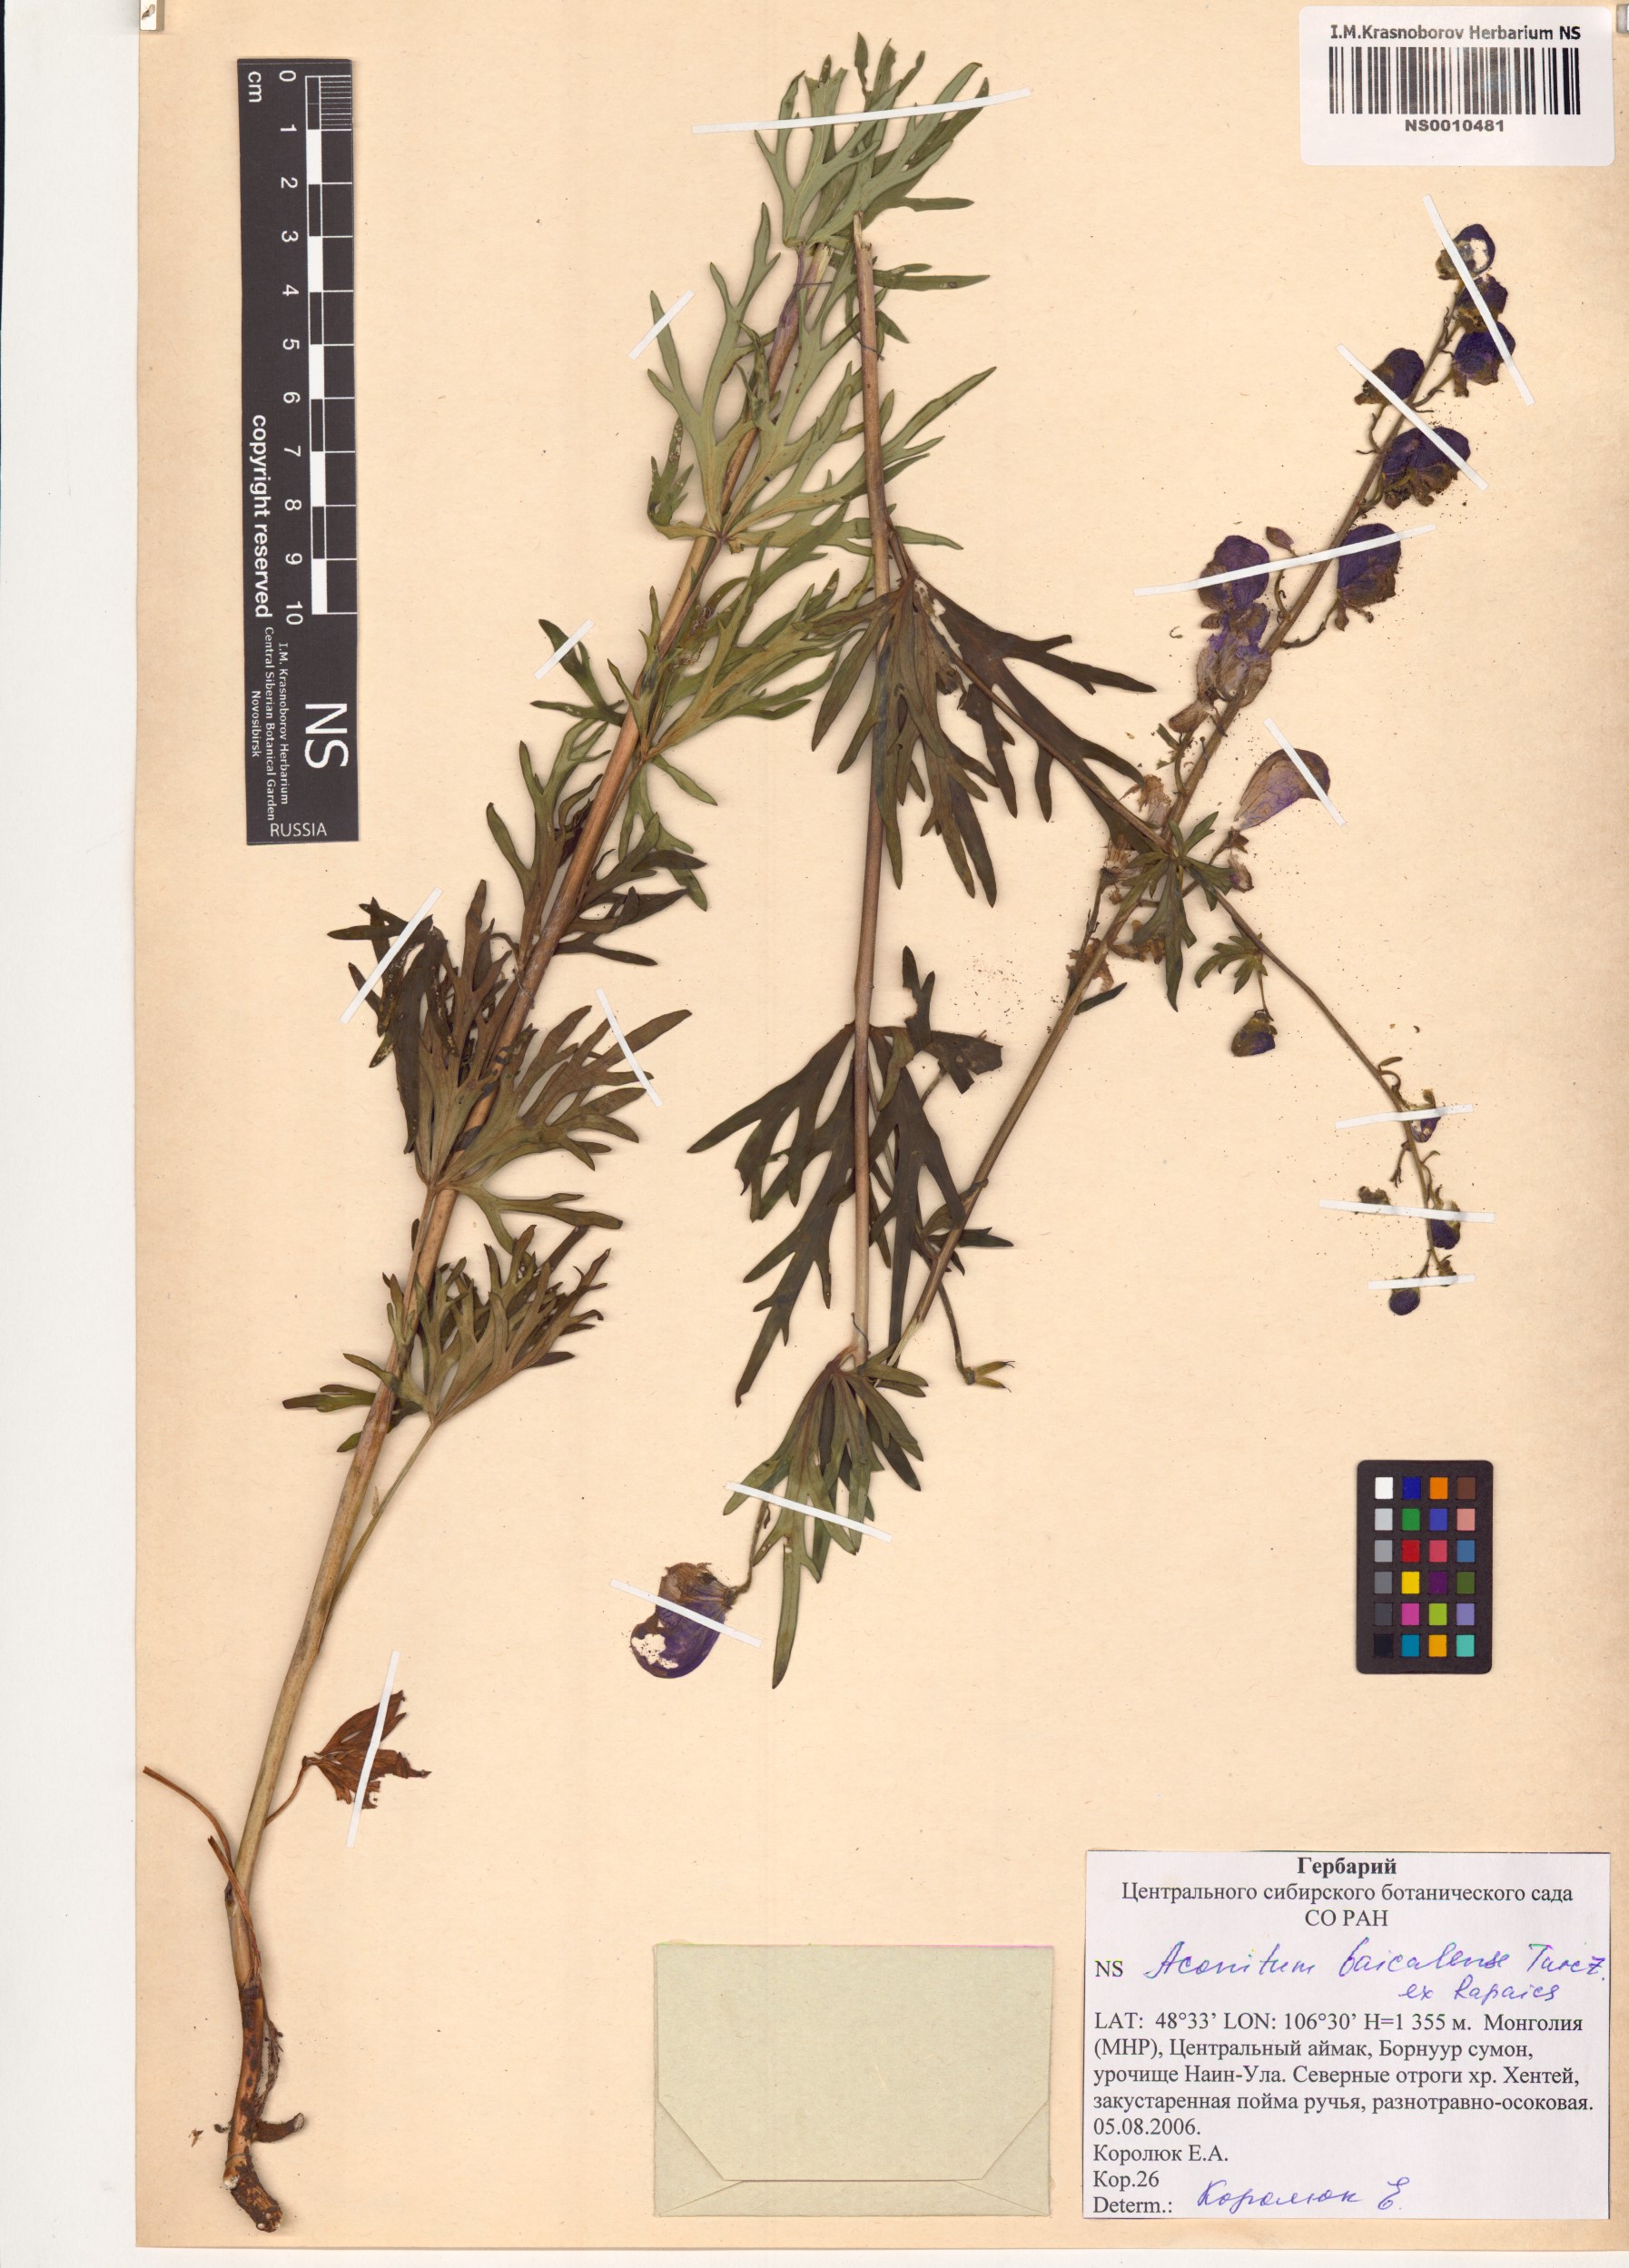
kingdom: Plantae
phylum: Tracheophyta
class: Magnoliopsida
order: Ranunculales
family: Ranunculaceae
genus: Aconitum
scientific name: Aconitum ambiguum
